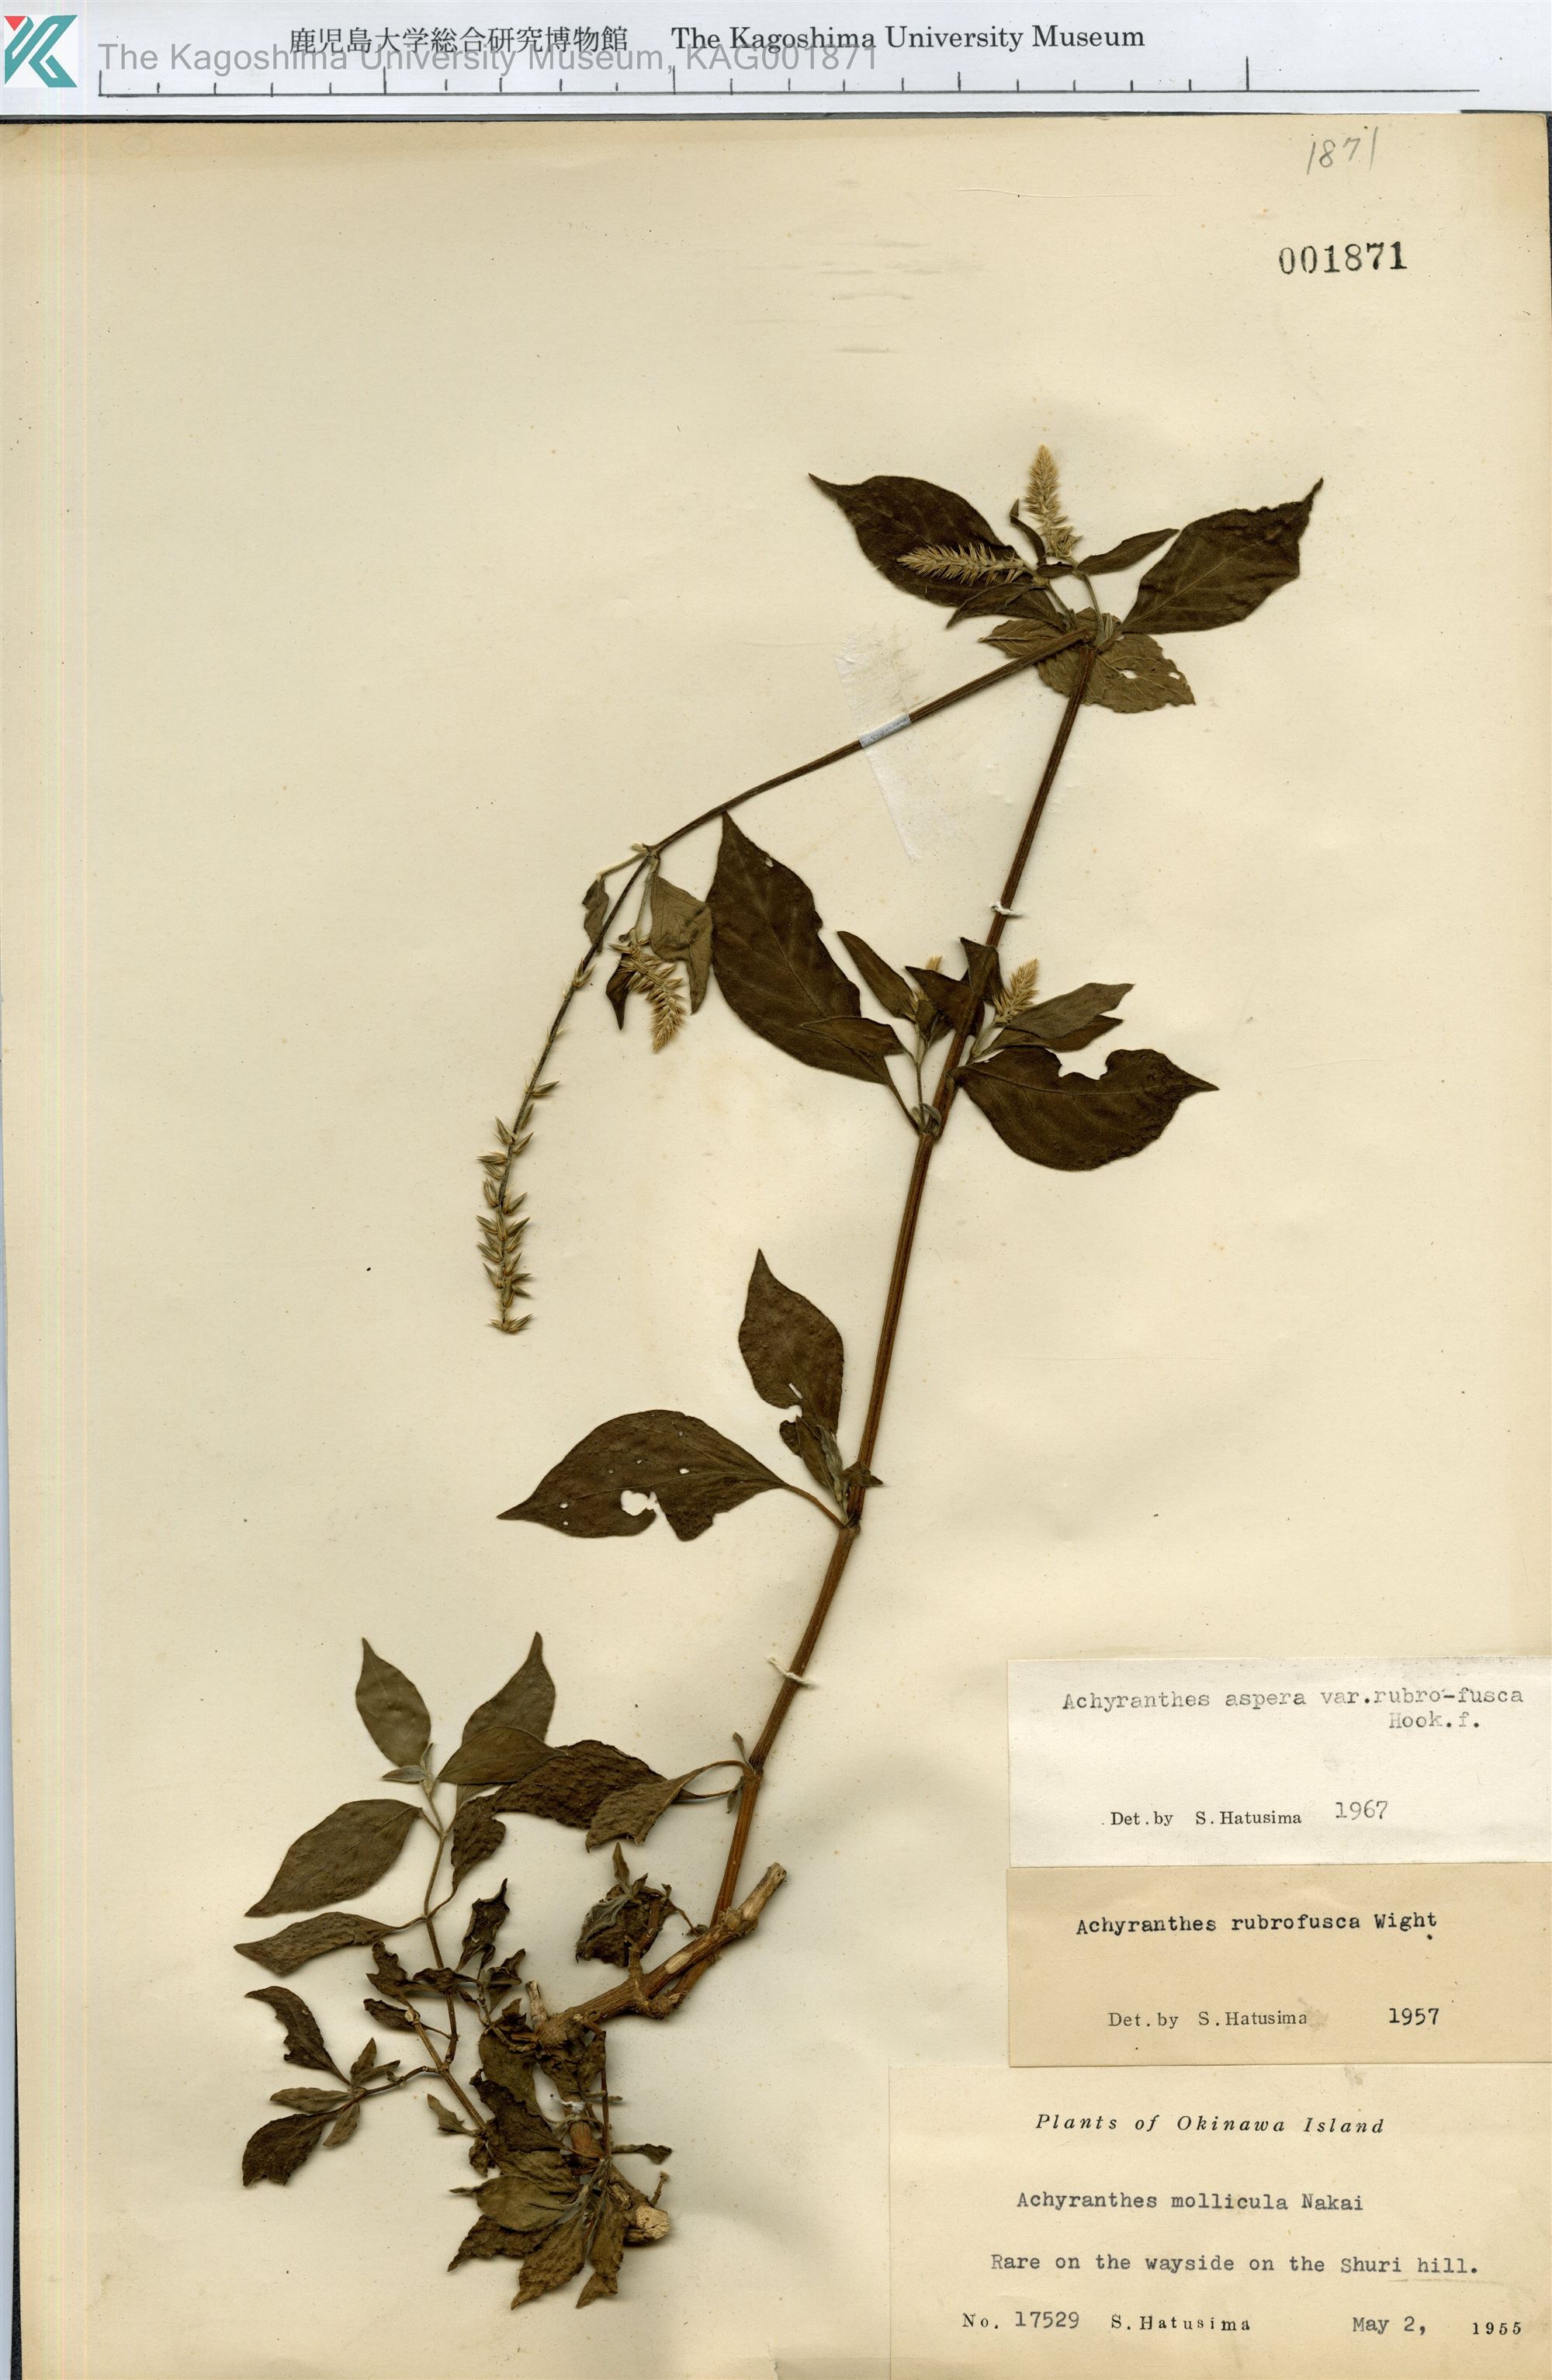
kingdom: Plantae
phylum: Tracheophyta
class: Magnoliopsida
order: Caryophyllales
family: Amaranthaceae
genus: Achyranthes
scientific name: Achyranthes aspera
